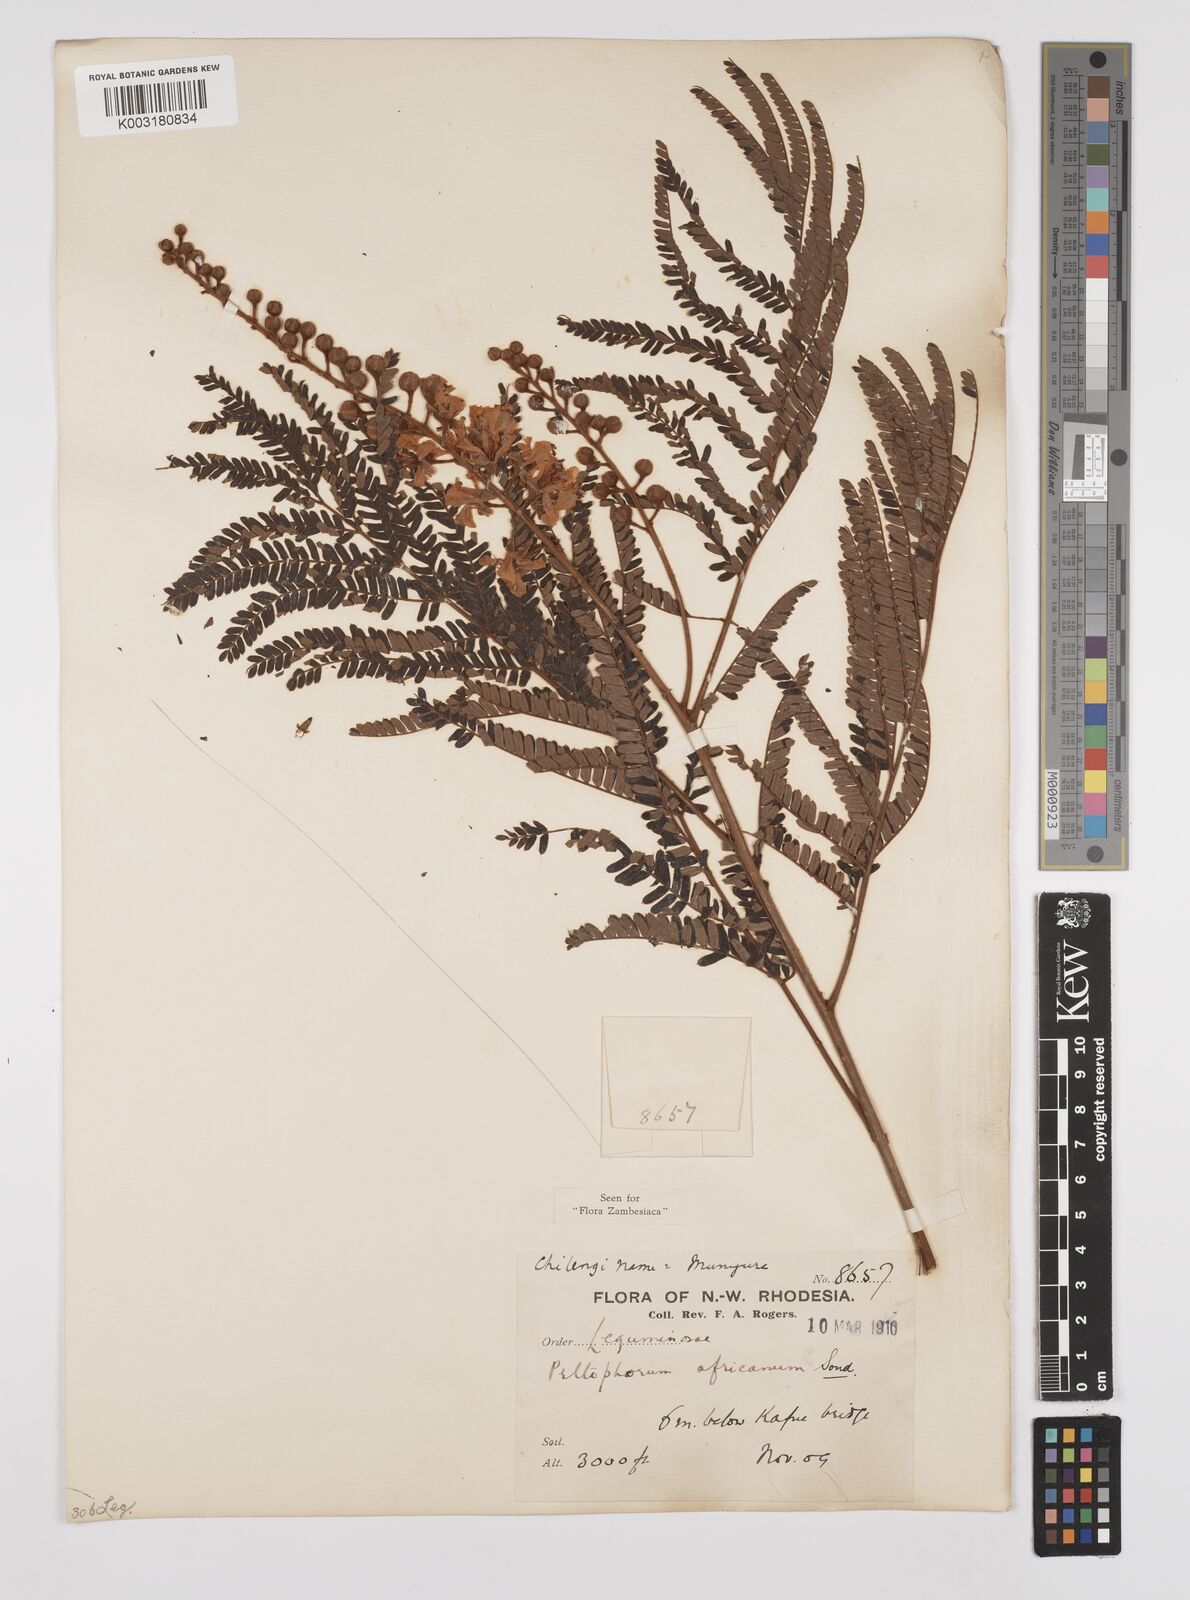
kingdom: Plantae
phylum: Tracheophyta
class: Magnoliopsida
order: Fabales
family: Fabaceae
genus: Peltophorum
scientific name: Peltophorum africanum
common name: African black wattle
